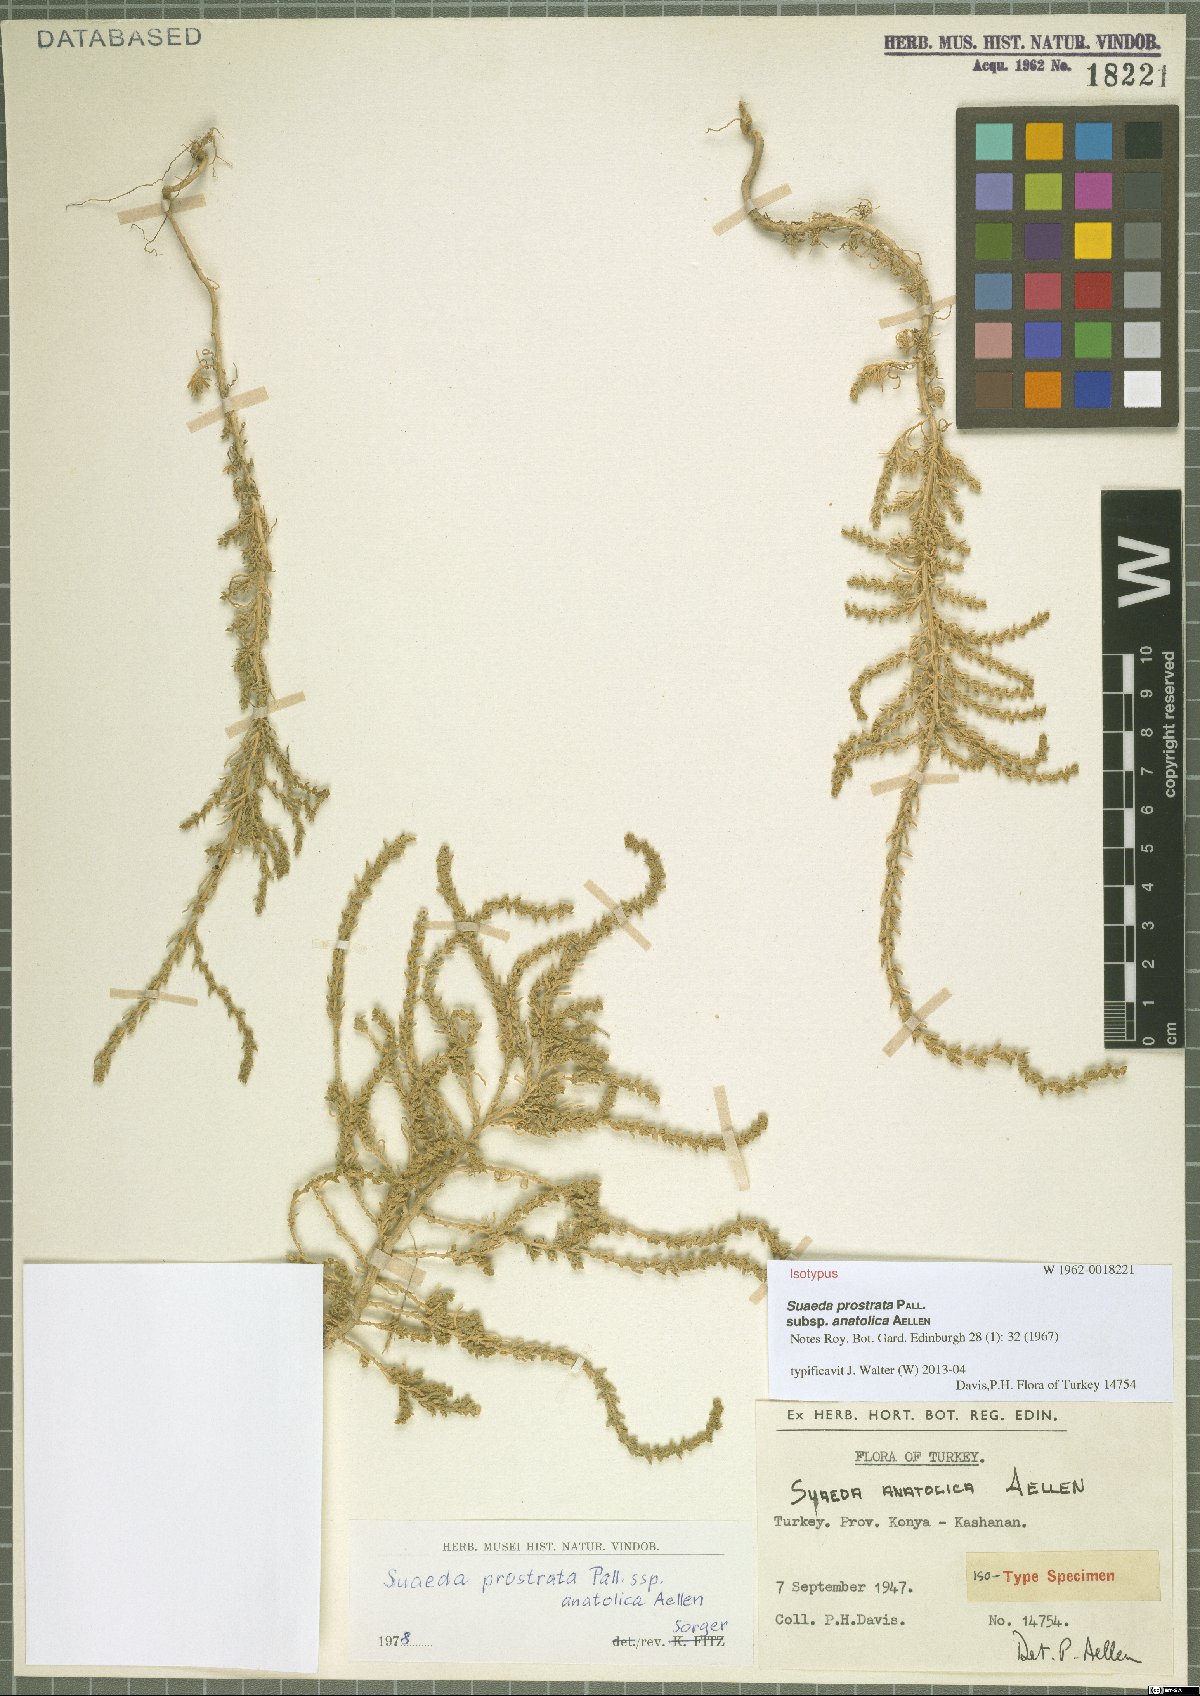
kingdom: Plantae
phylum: Tracheophyta
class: Magnoliopsida
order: Caryophyllales
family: Amaranthaceae
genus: Suaeda
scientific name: Suaeda anatolica
